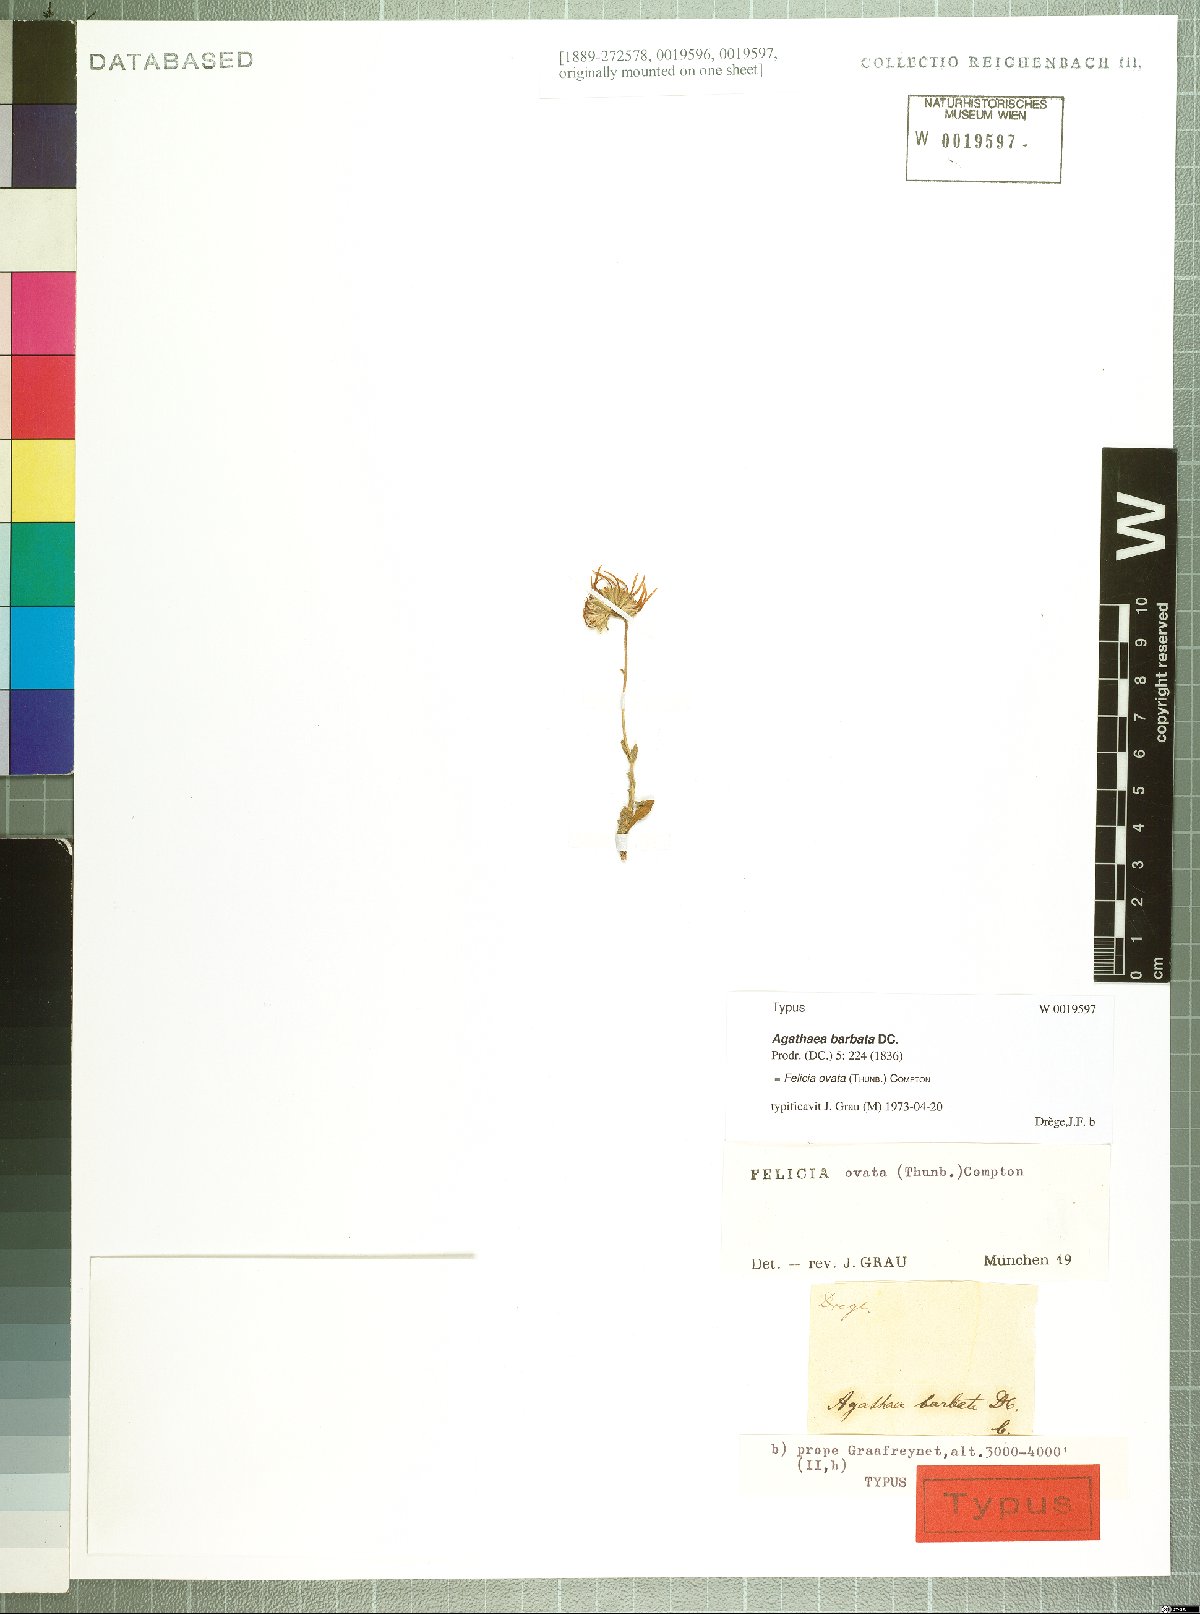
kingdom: Plantae
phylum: Tracheophyta
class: Magnoliopsida
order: Asterales
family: Asteraceae
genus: Felicia
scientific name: Felicia ovata
